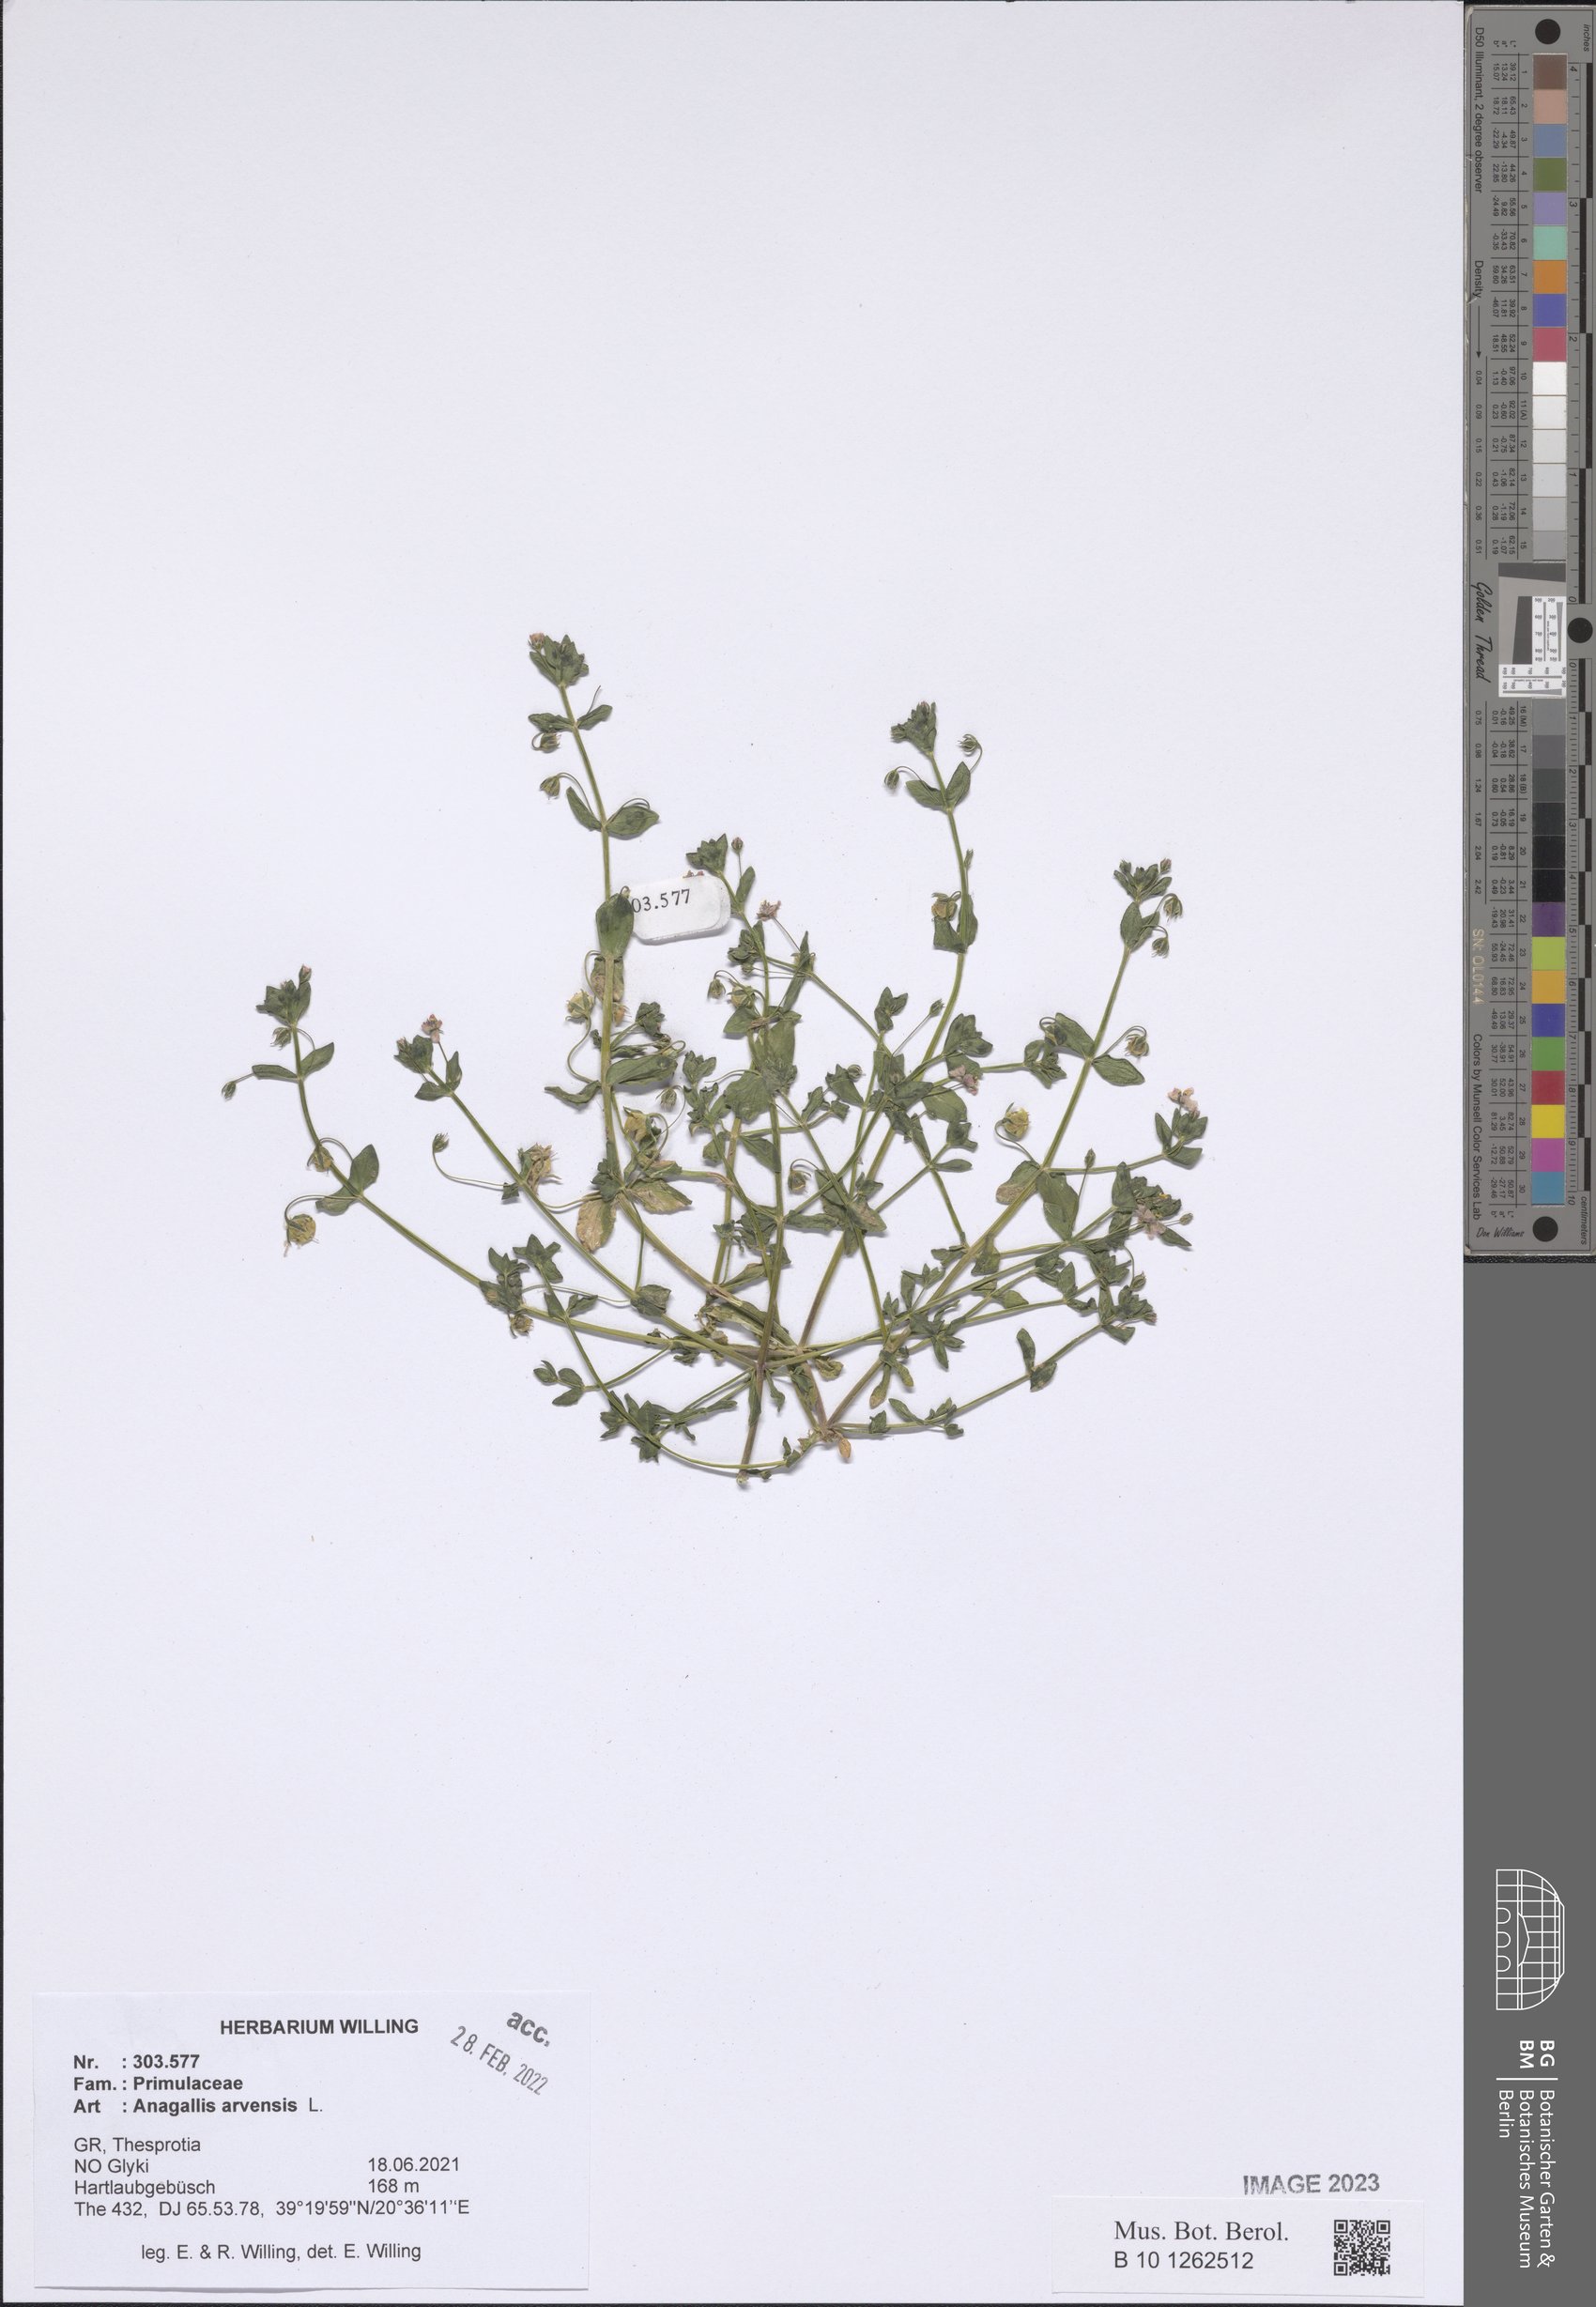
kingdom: Plantae
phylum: Tracheophyta
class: Magnoliopsida
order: Ericales
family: Primulaceae
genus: Lysimachia
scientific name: Lysimachia arvensis
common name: Scarlet pimpernel
